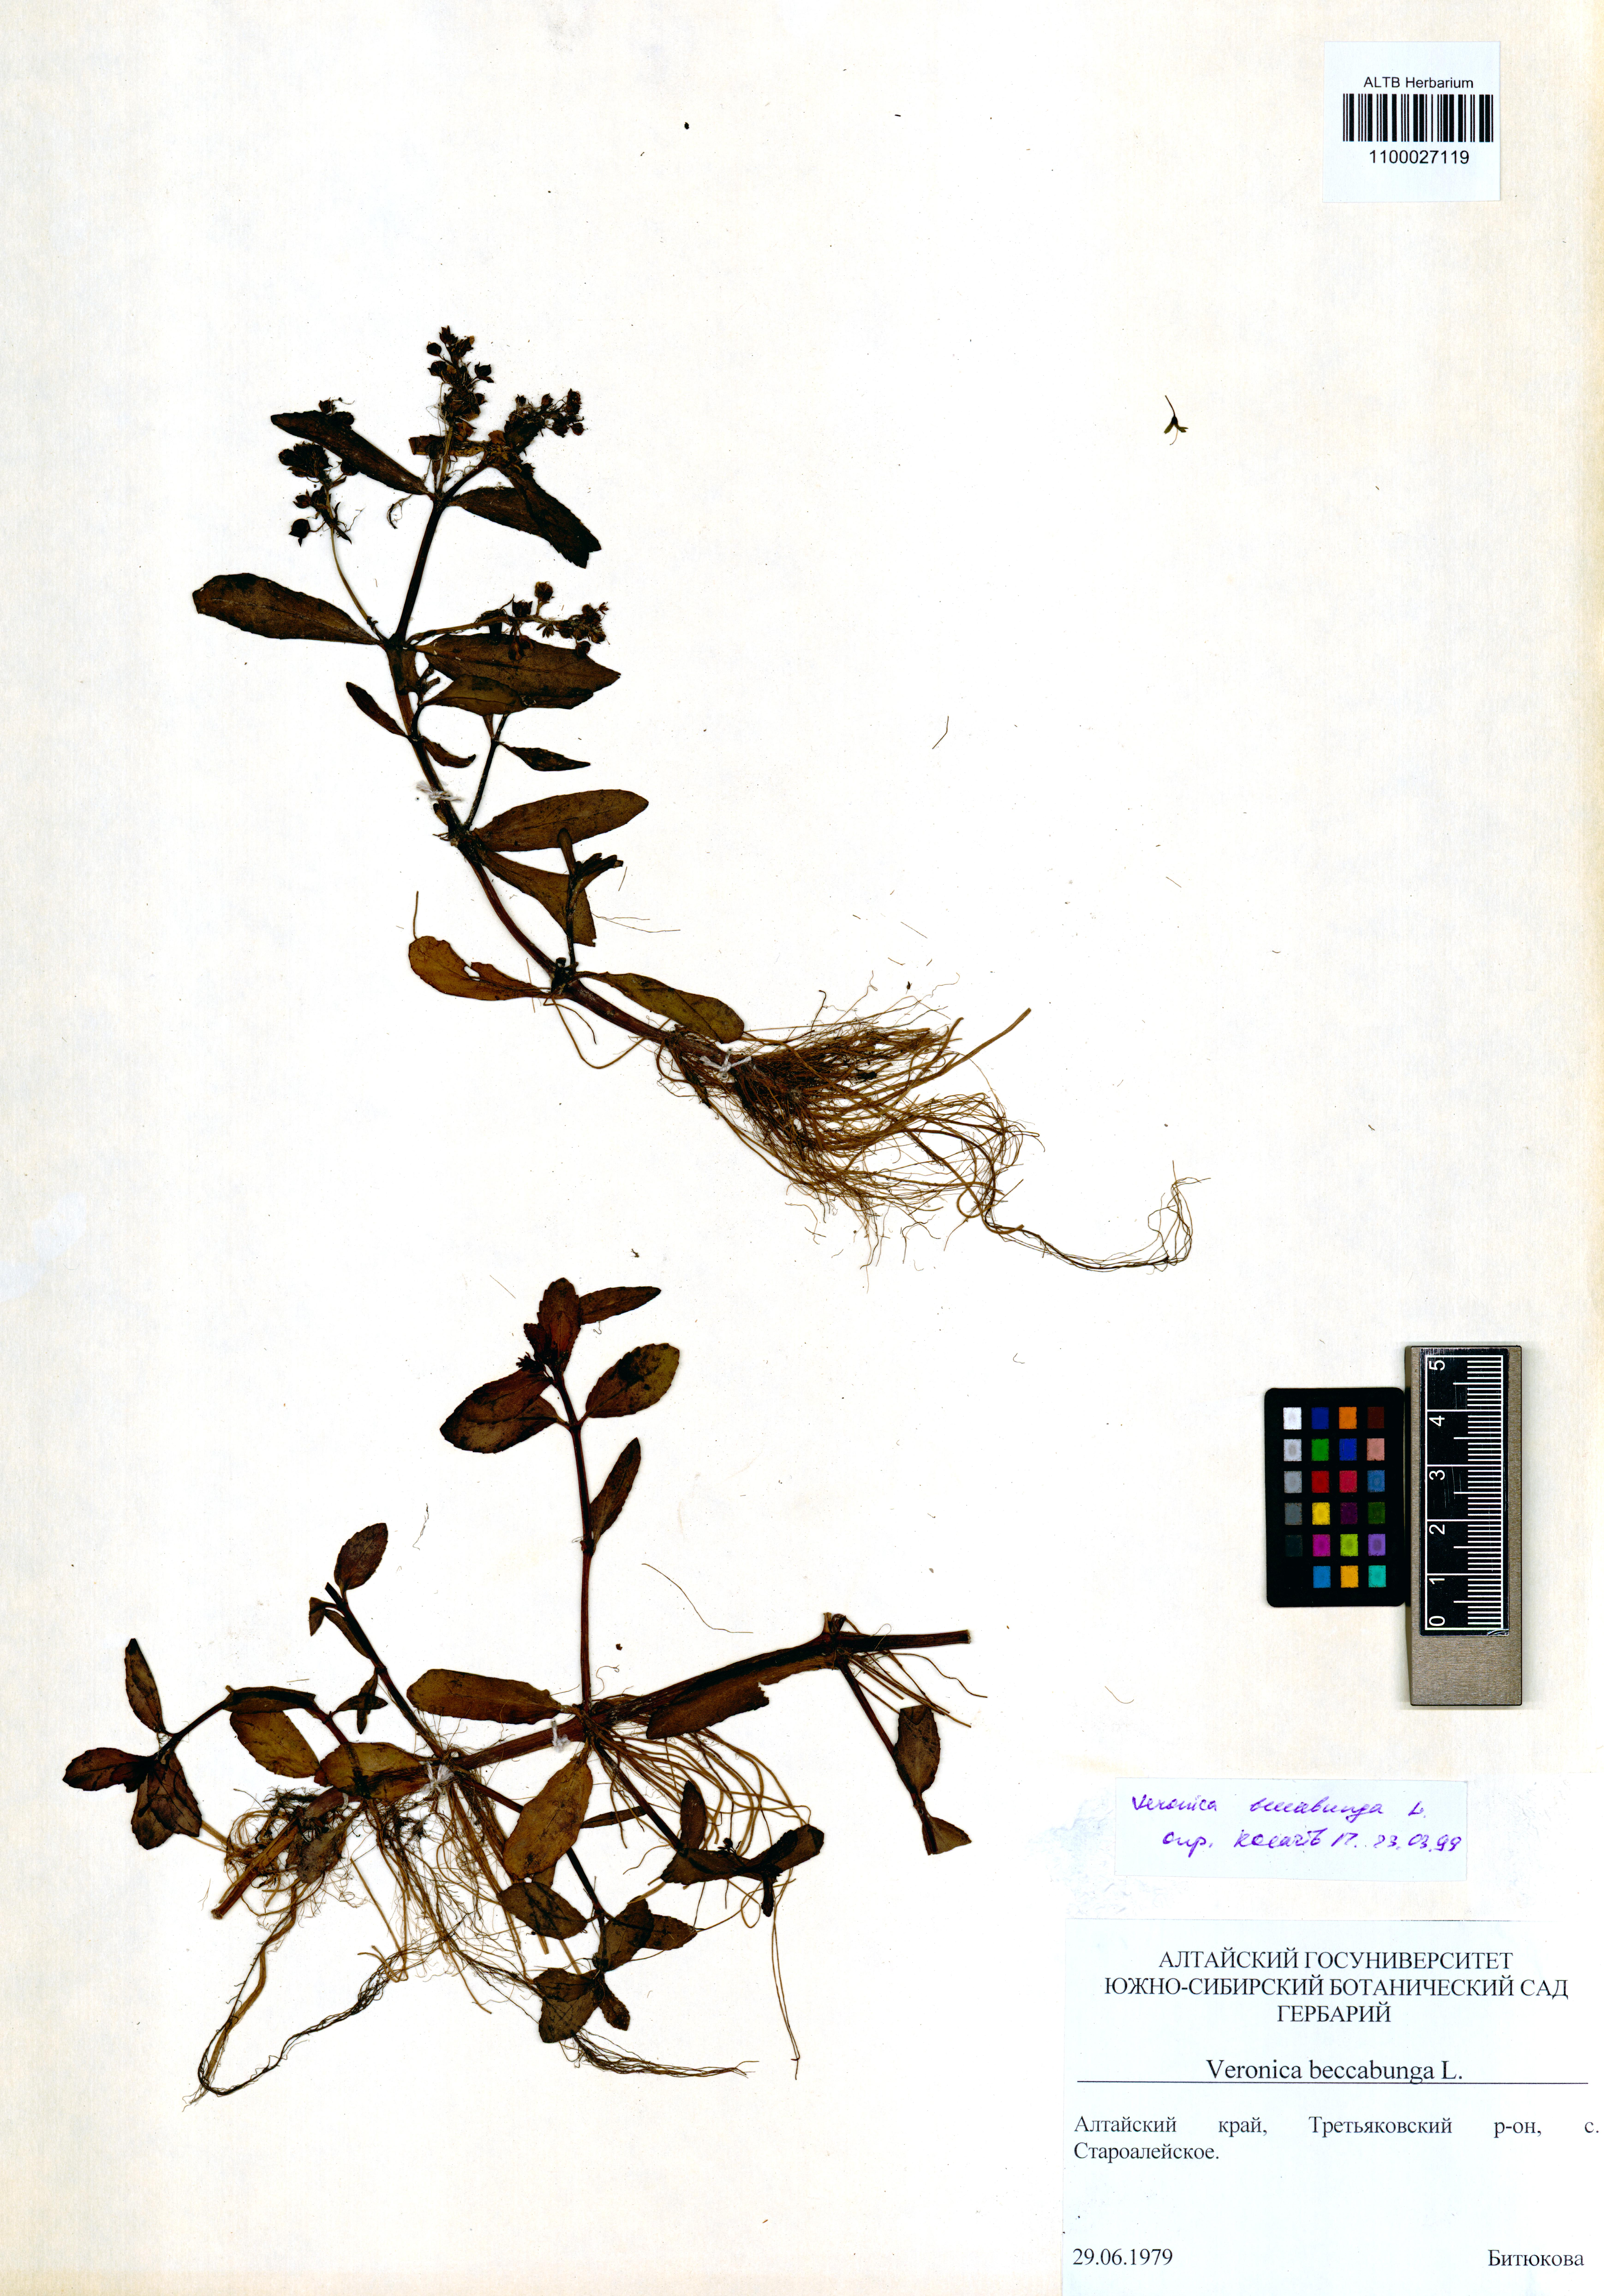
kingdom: Plantae
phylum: Tracheophyta
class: Magnoliopsida
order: Lamiales
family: Plantaginaceae
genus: Veronica
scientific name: Veronica beccabunga
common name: Brooklime
